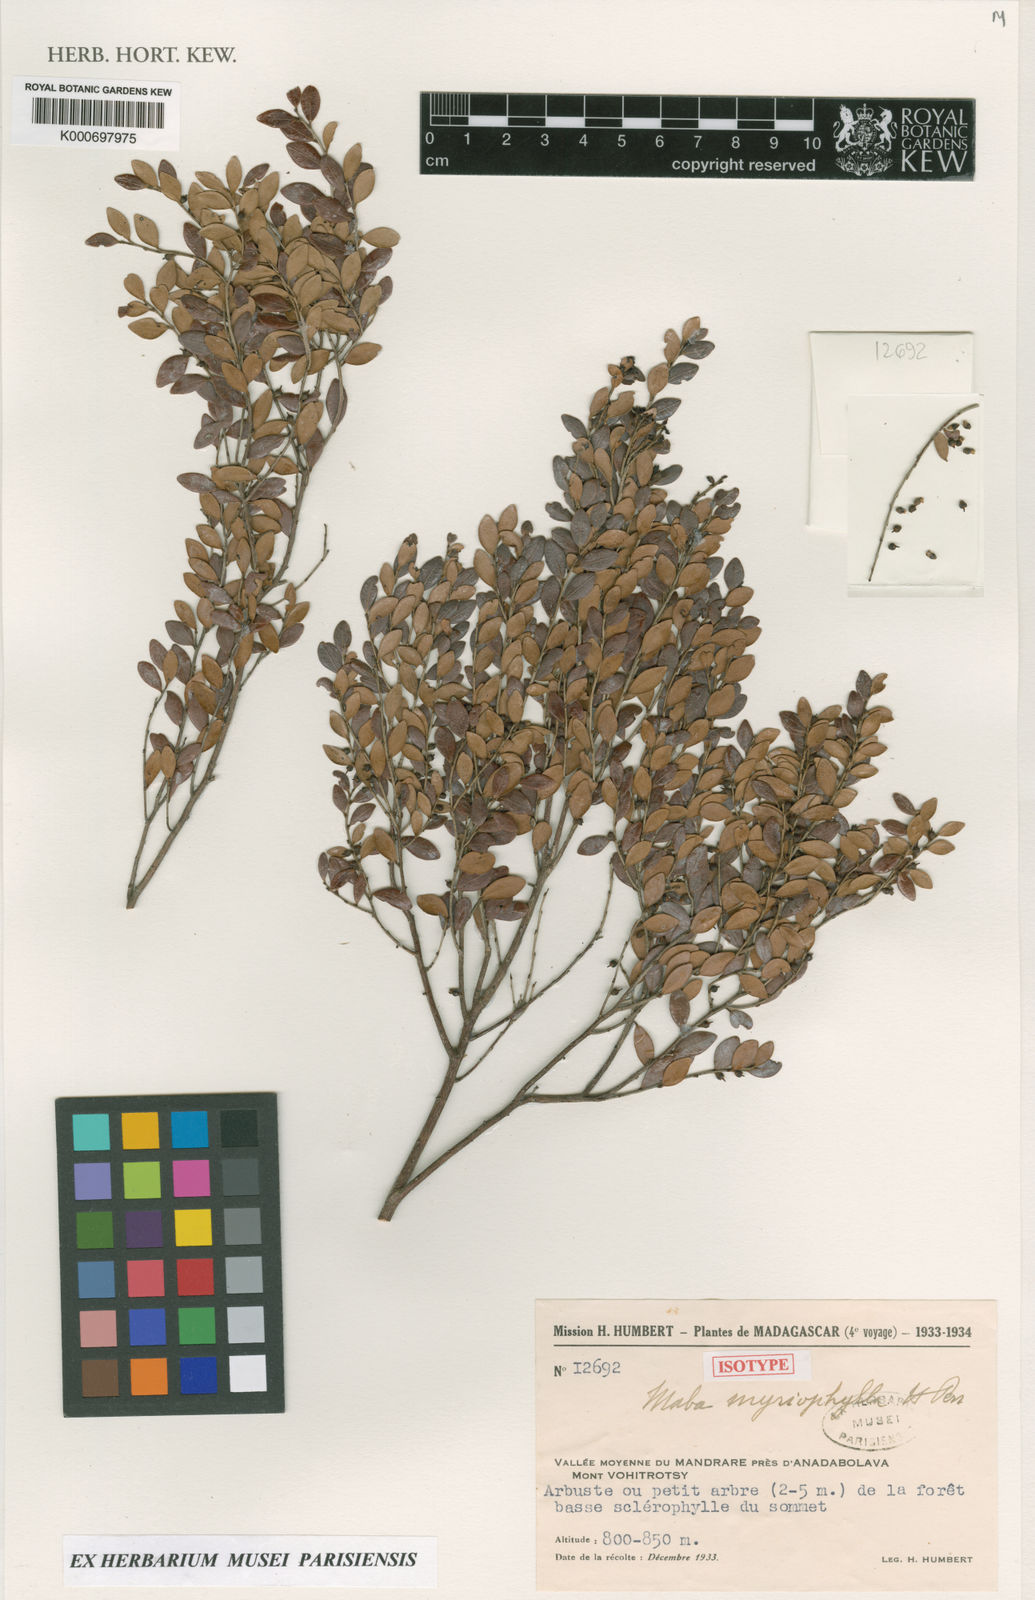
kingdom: Plantae
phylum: Tracheophyta
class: Magnoliopsida
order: Ericales
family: Ebenaceae
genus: Diospyros
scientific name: Diospyros myriophylla
